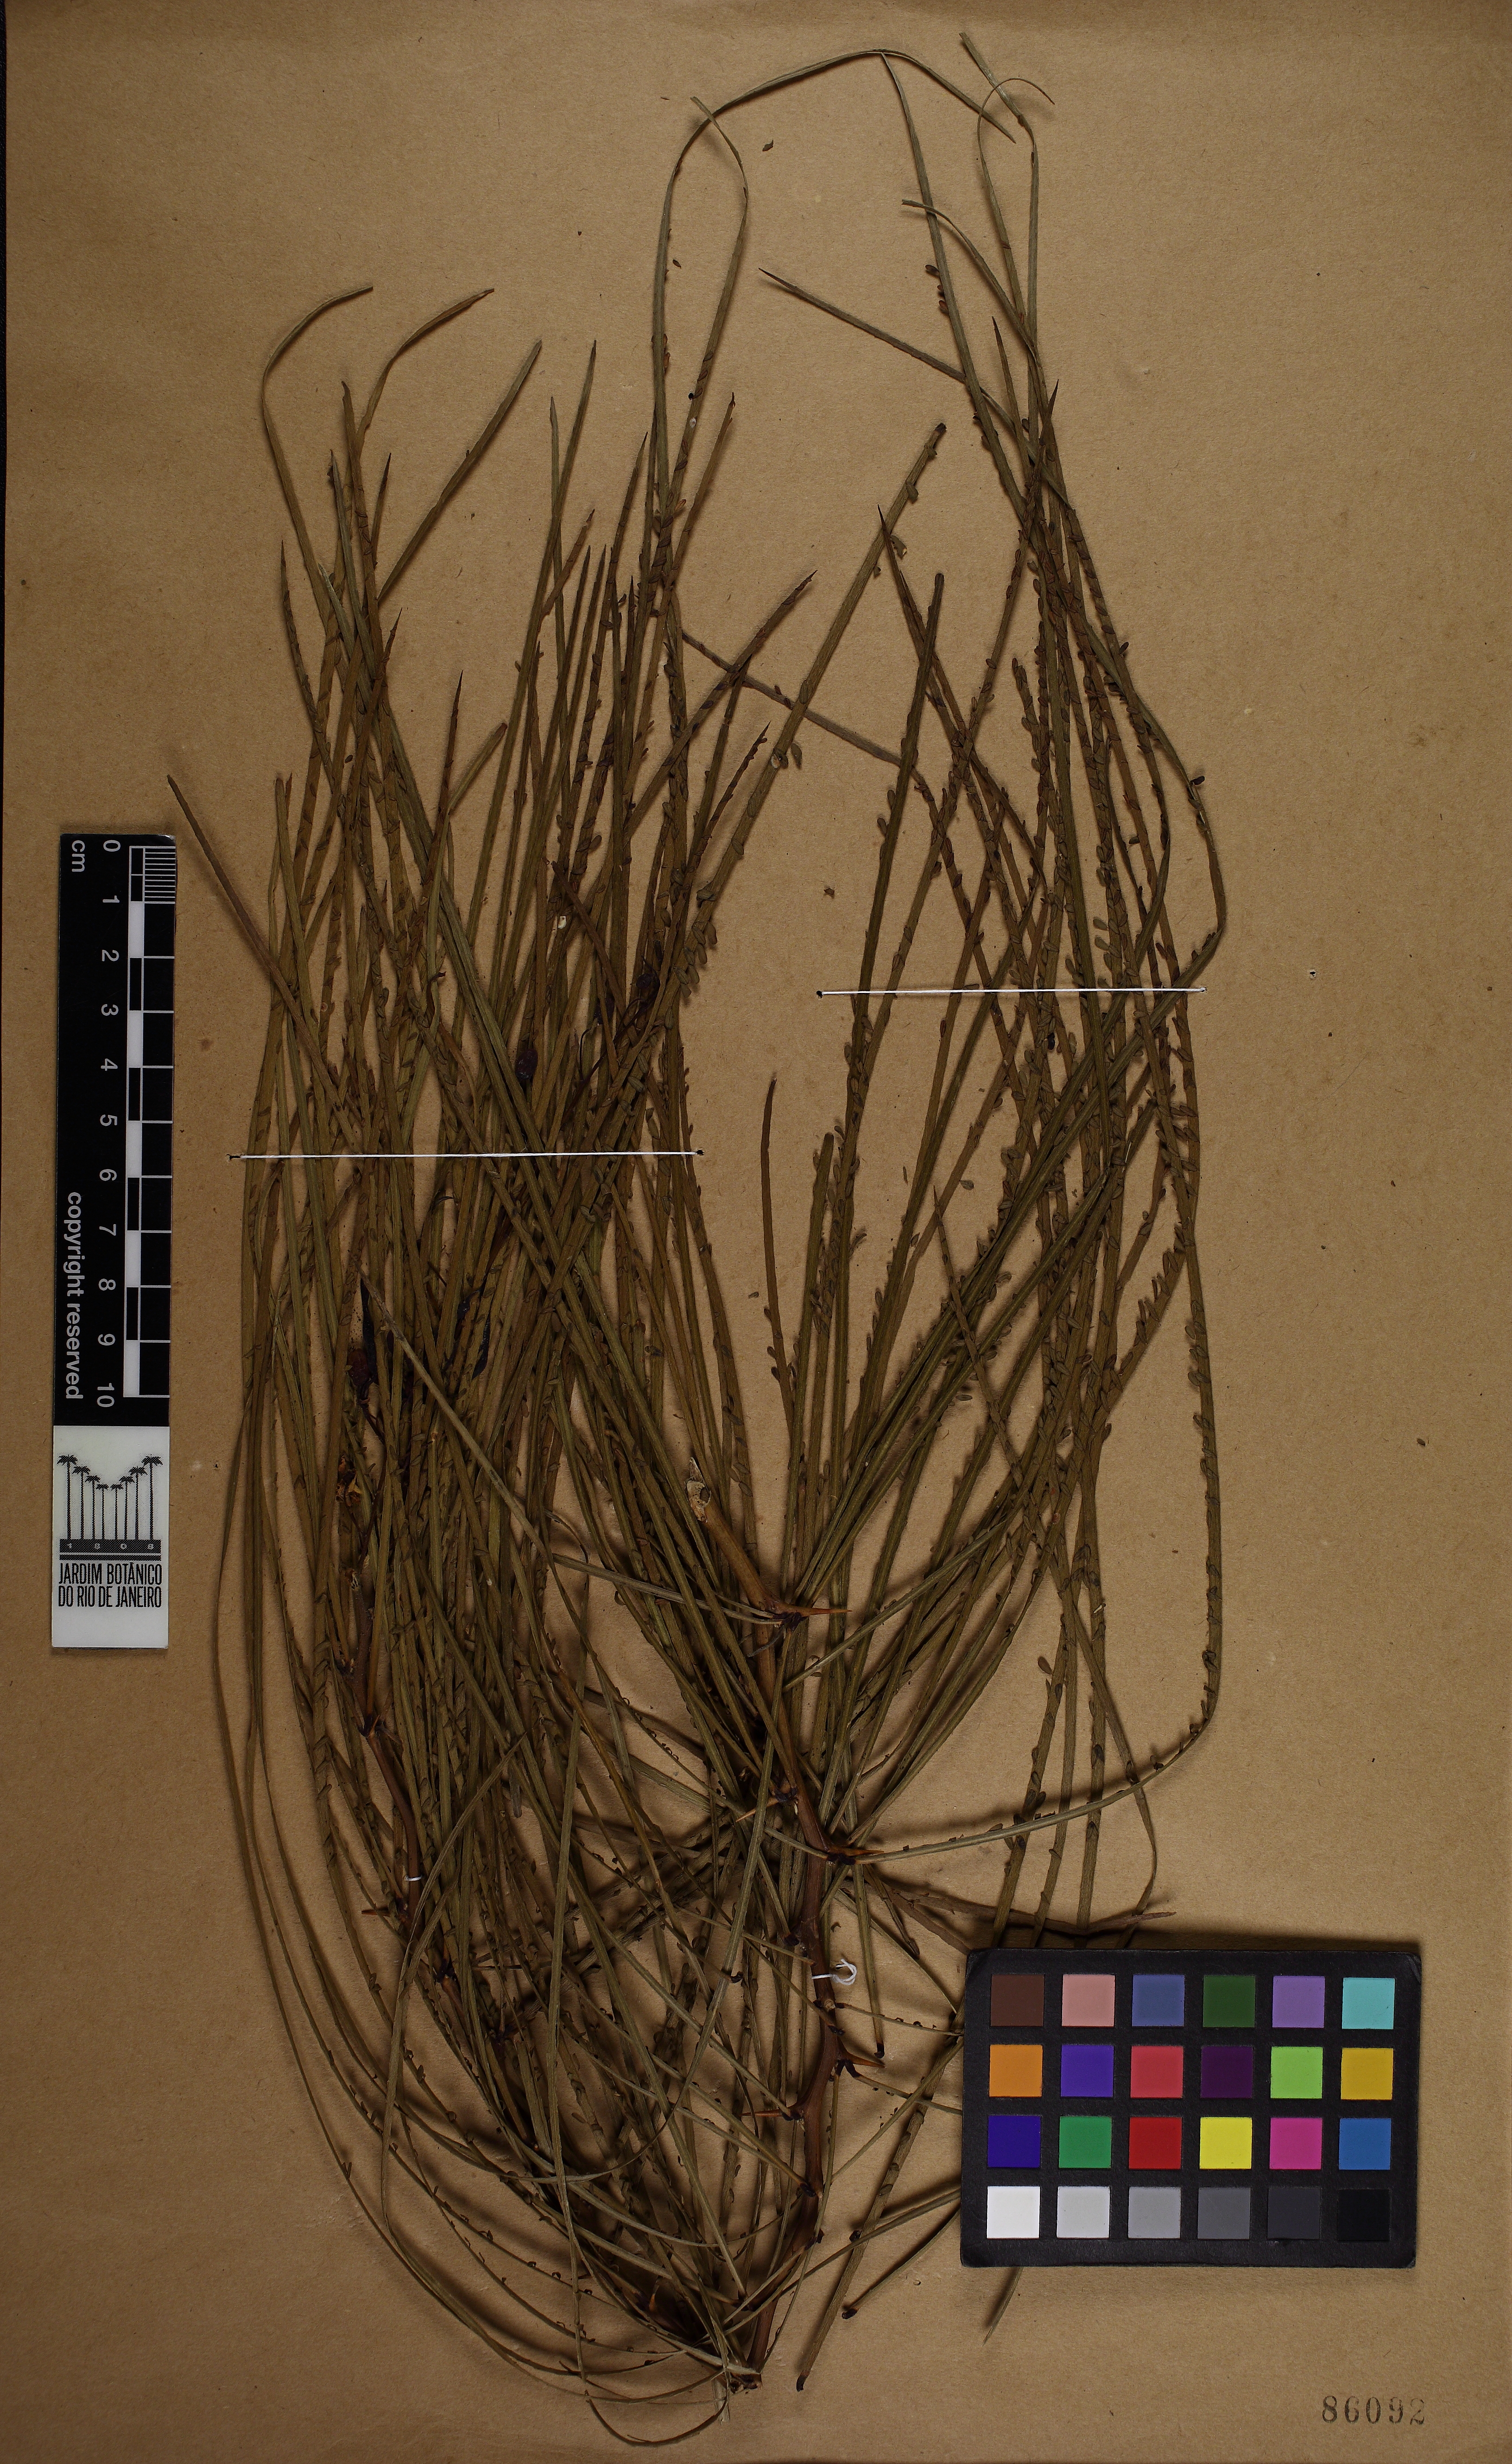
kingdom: Plantae
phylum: Tracheophyta
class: Magnoliopsida
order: Fabales
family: Fabaceae
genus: Parkinsonia
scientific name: Parkinsonia aculeata
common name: Jerusalem thorn
